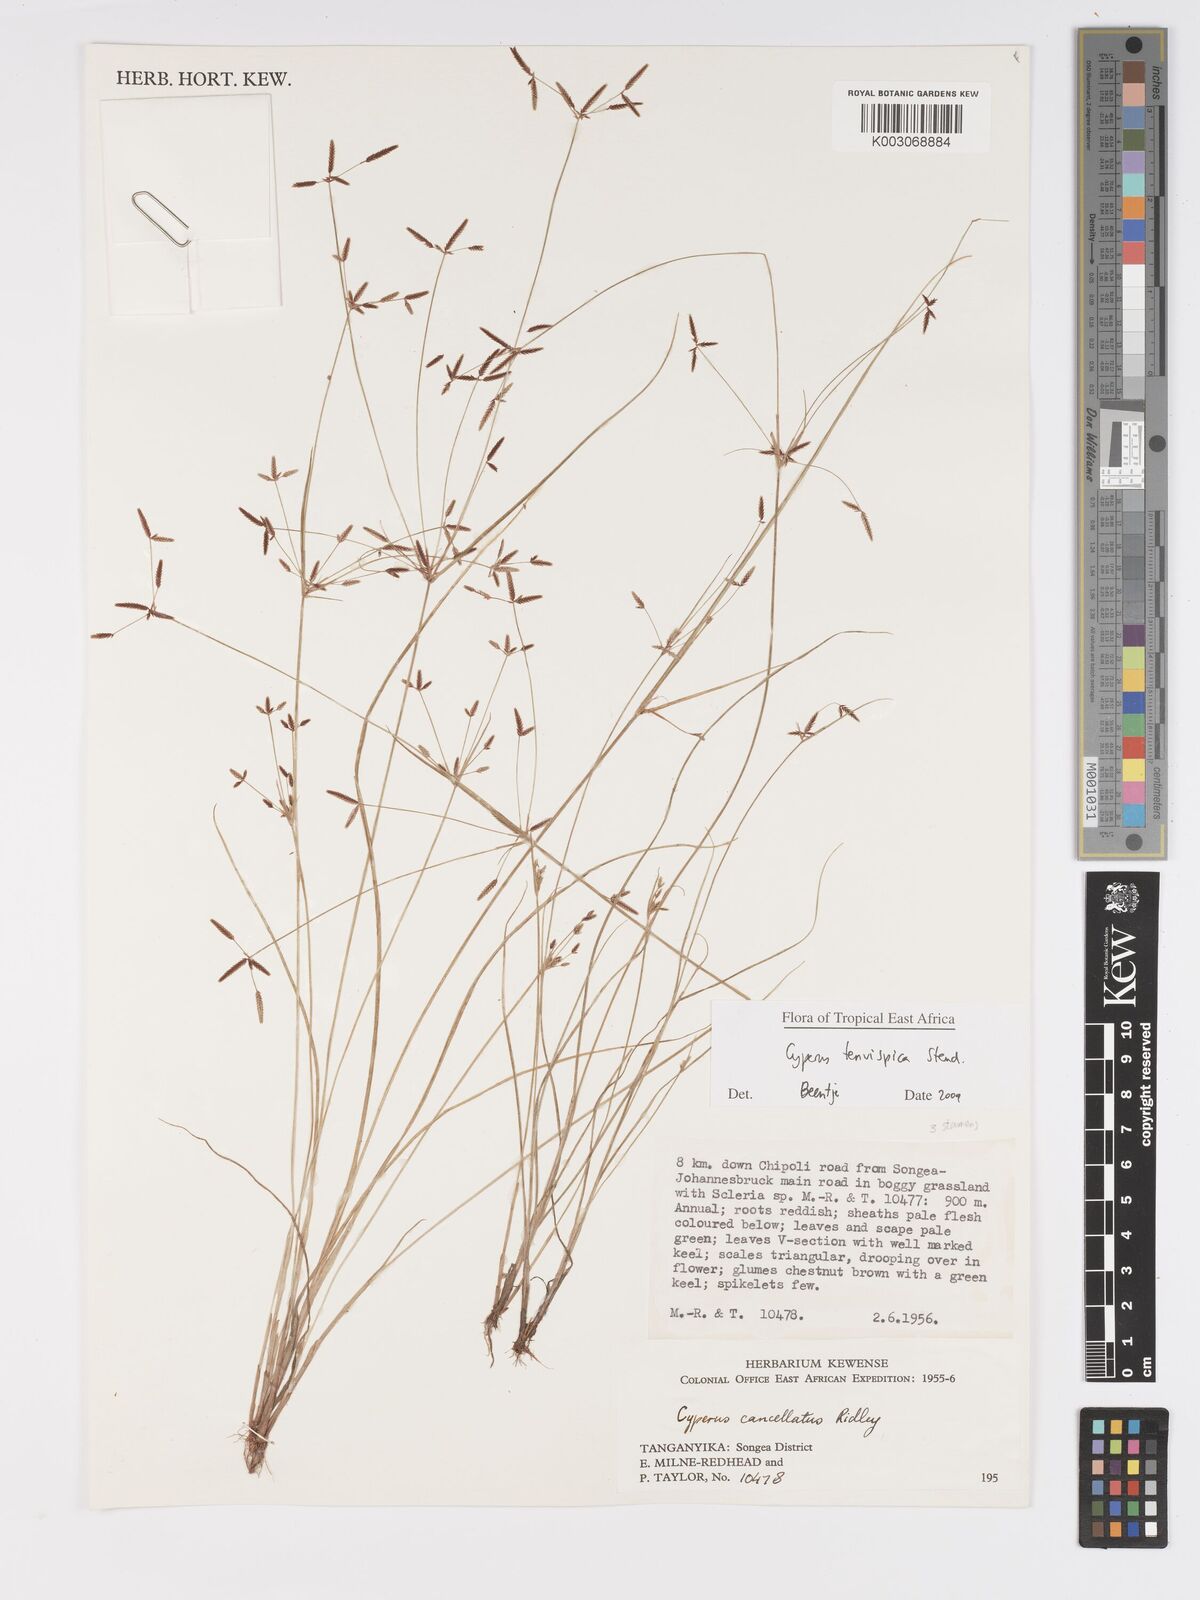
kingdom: Plantae
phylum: Tracheophyta
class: Liliopsida
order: Poales
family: Cyperaceae
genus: Cyperus
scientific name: Cyperus tenuispica
